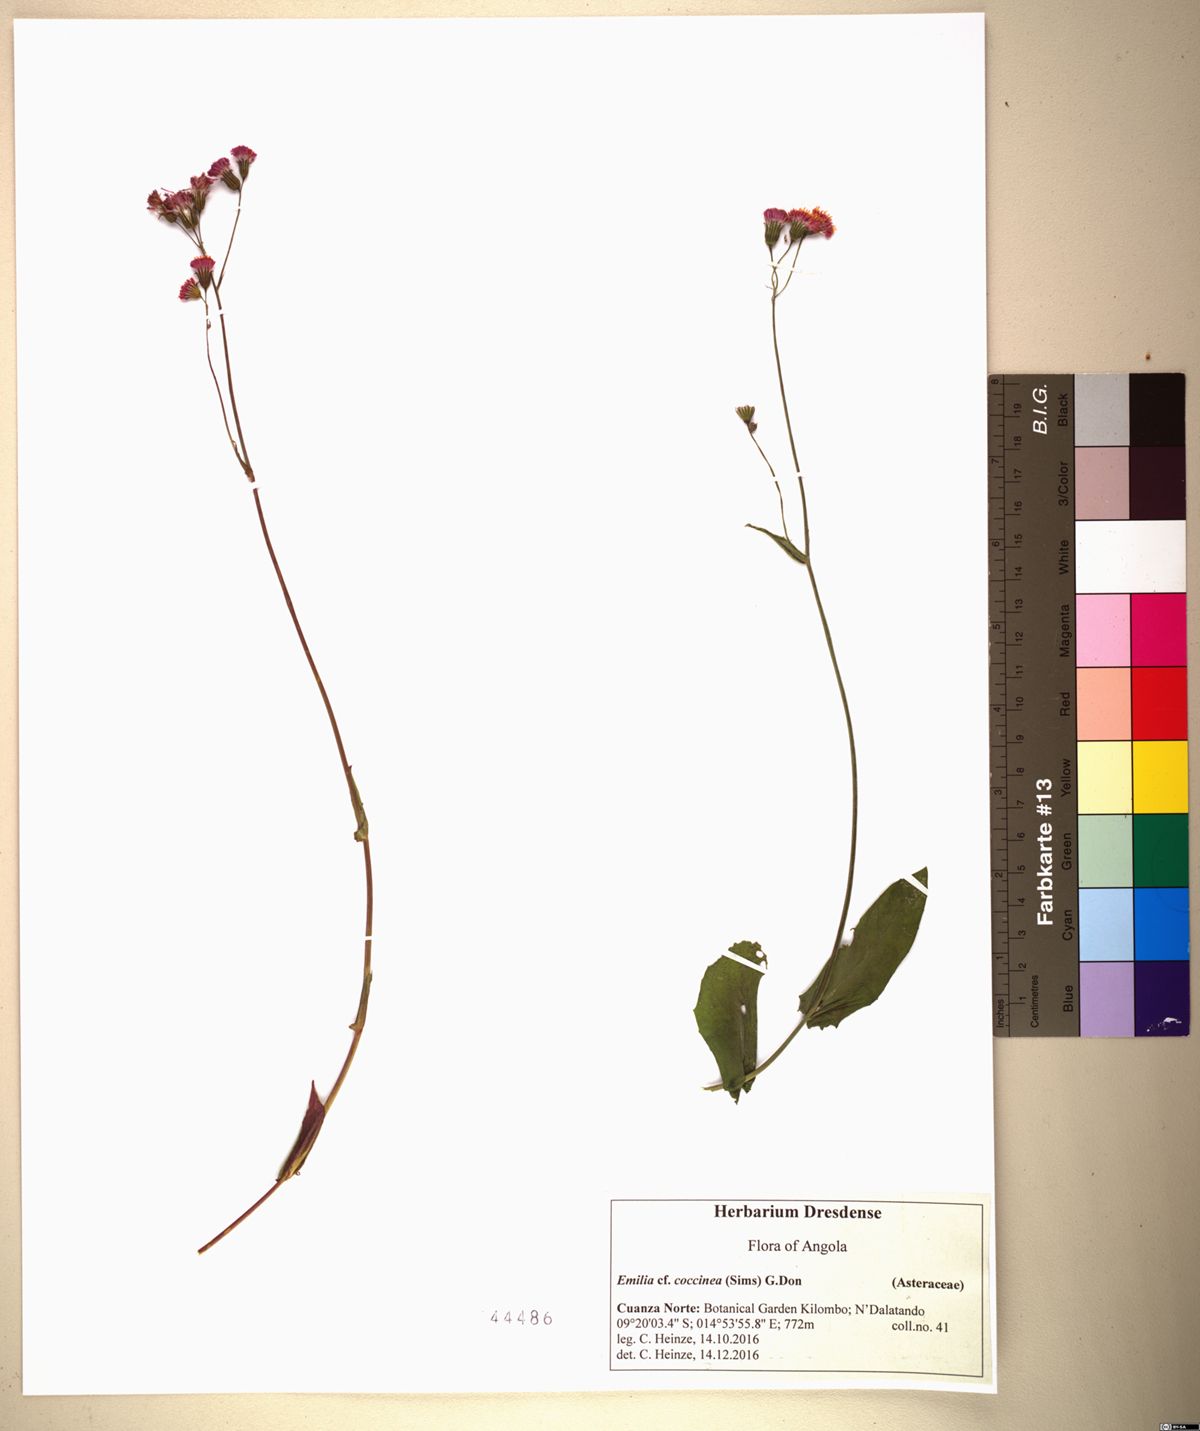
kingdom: Plantae
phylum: Tracheophyta
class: Magnoliopsida
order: Asterales
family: Asteraceae
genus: Emilia
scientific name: Emilia coccinea
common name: Scarlet tasselflower
